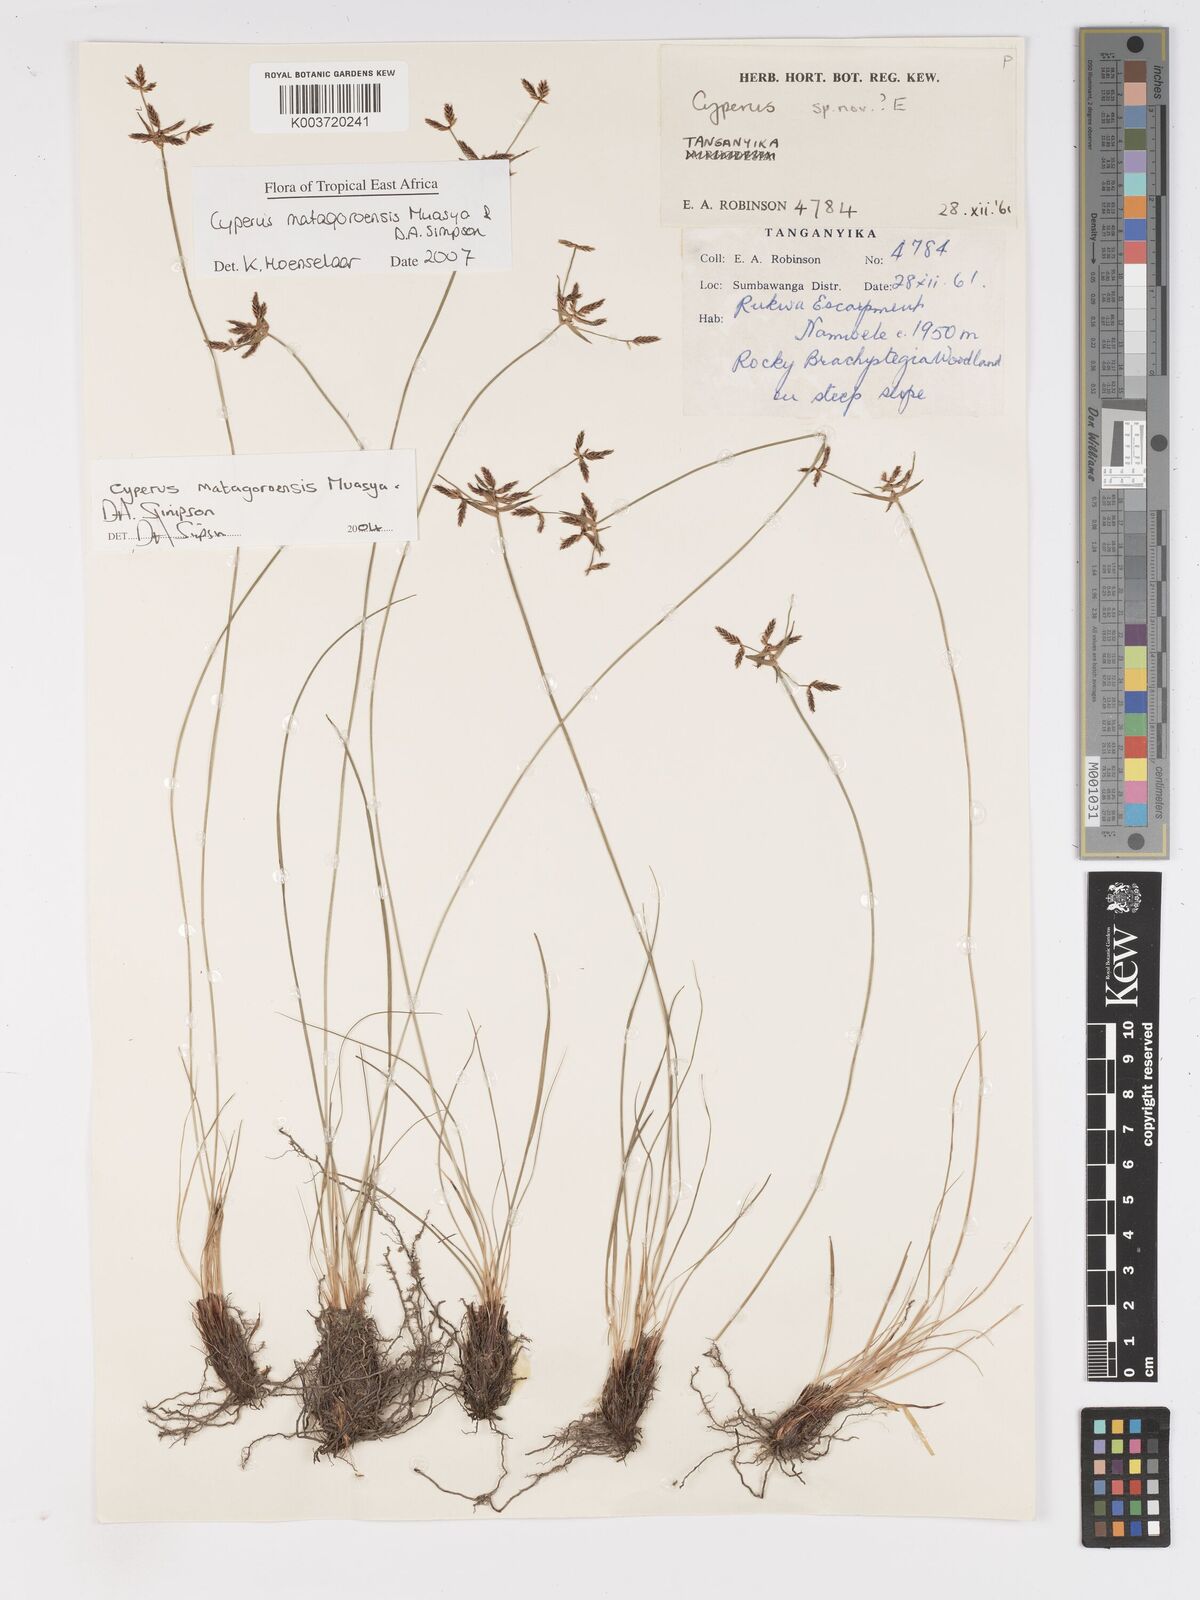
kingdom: Plantae
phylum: Tracheophyta
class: Liliopsida
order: Poales
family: Cyperaceae
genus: Cyperus
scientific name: Cyperus matagoroensis
